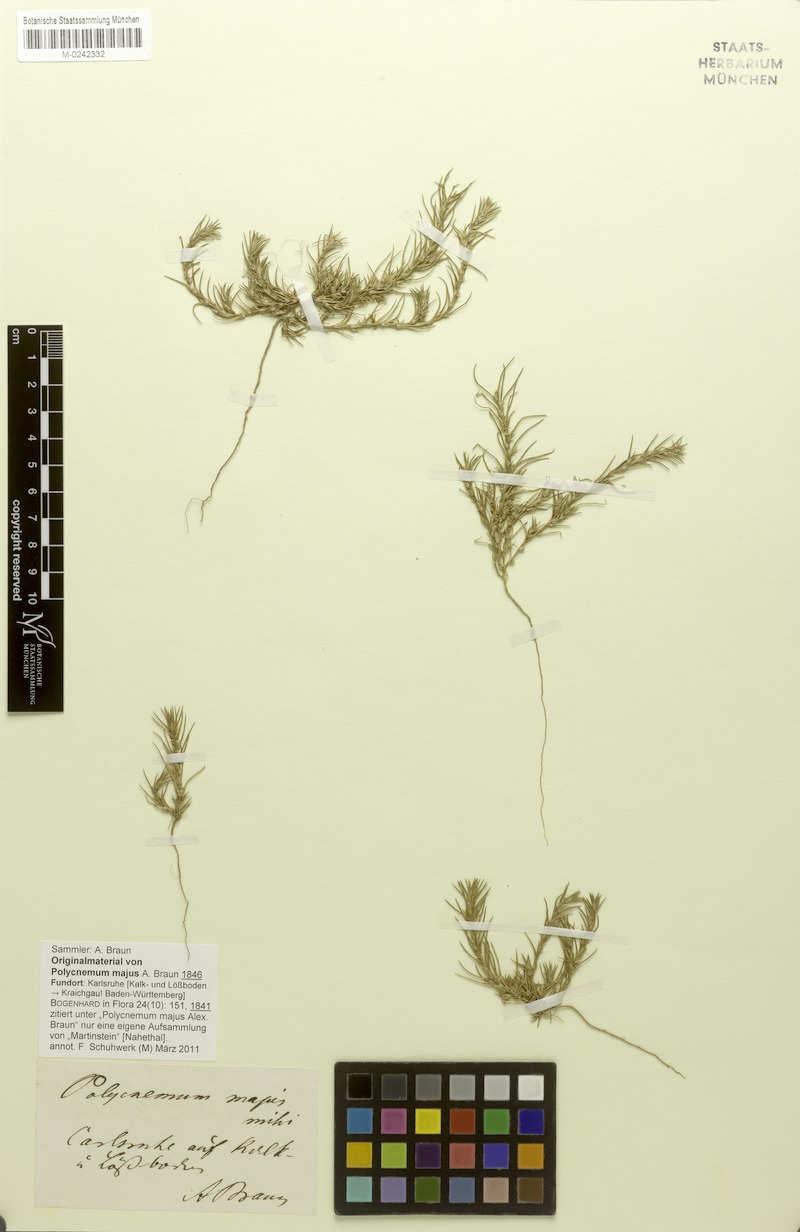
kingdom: Plantae
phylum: Tracheophyta
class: Magnoliopsida
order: Caryophyllales
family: Amaranthaceae
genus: Polycnemum
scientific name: Polycnemum majus
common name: Giant needleleaf
